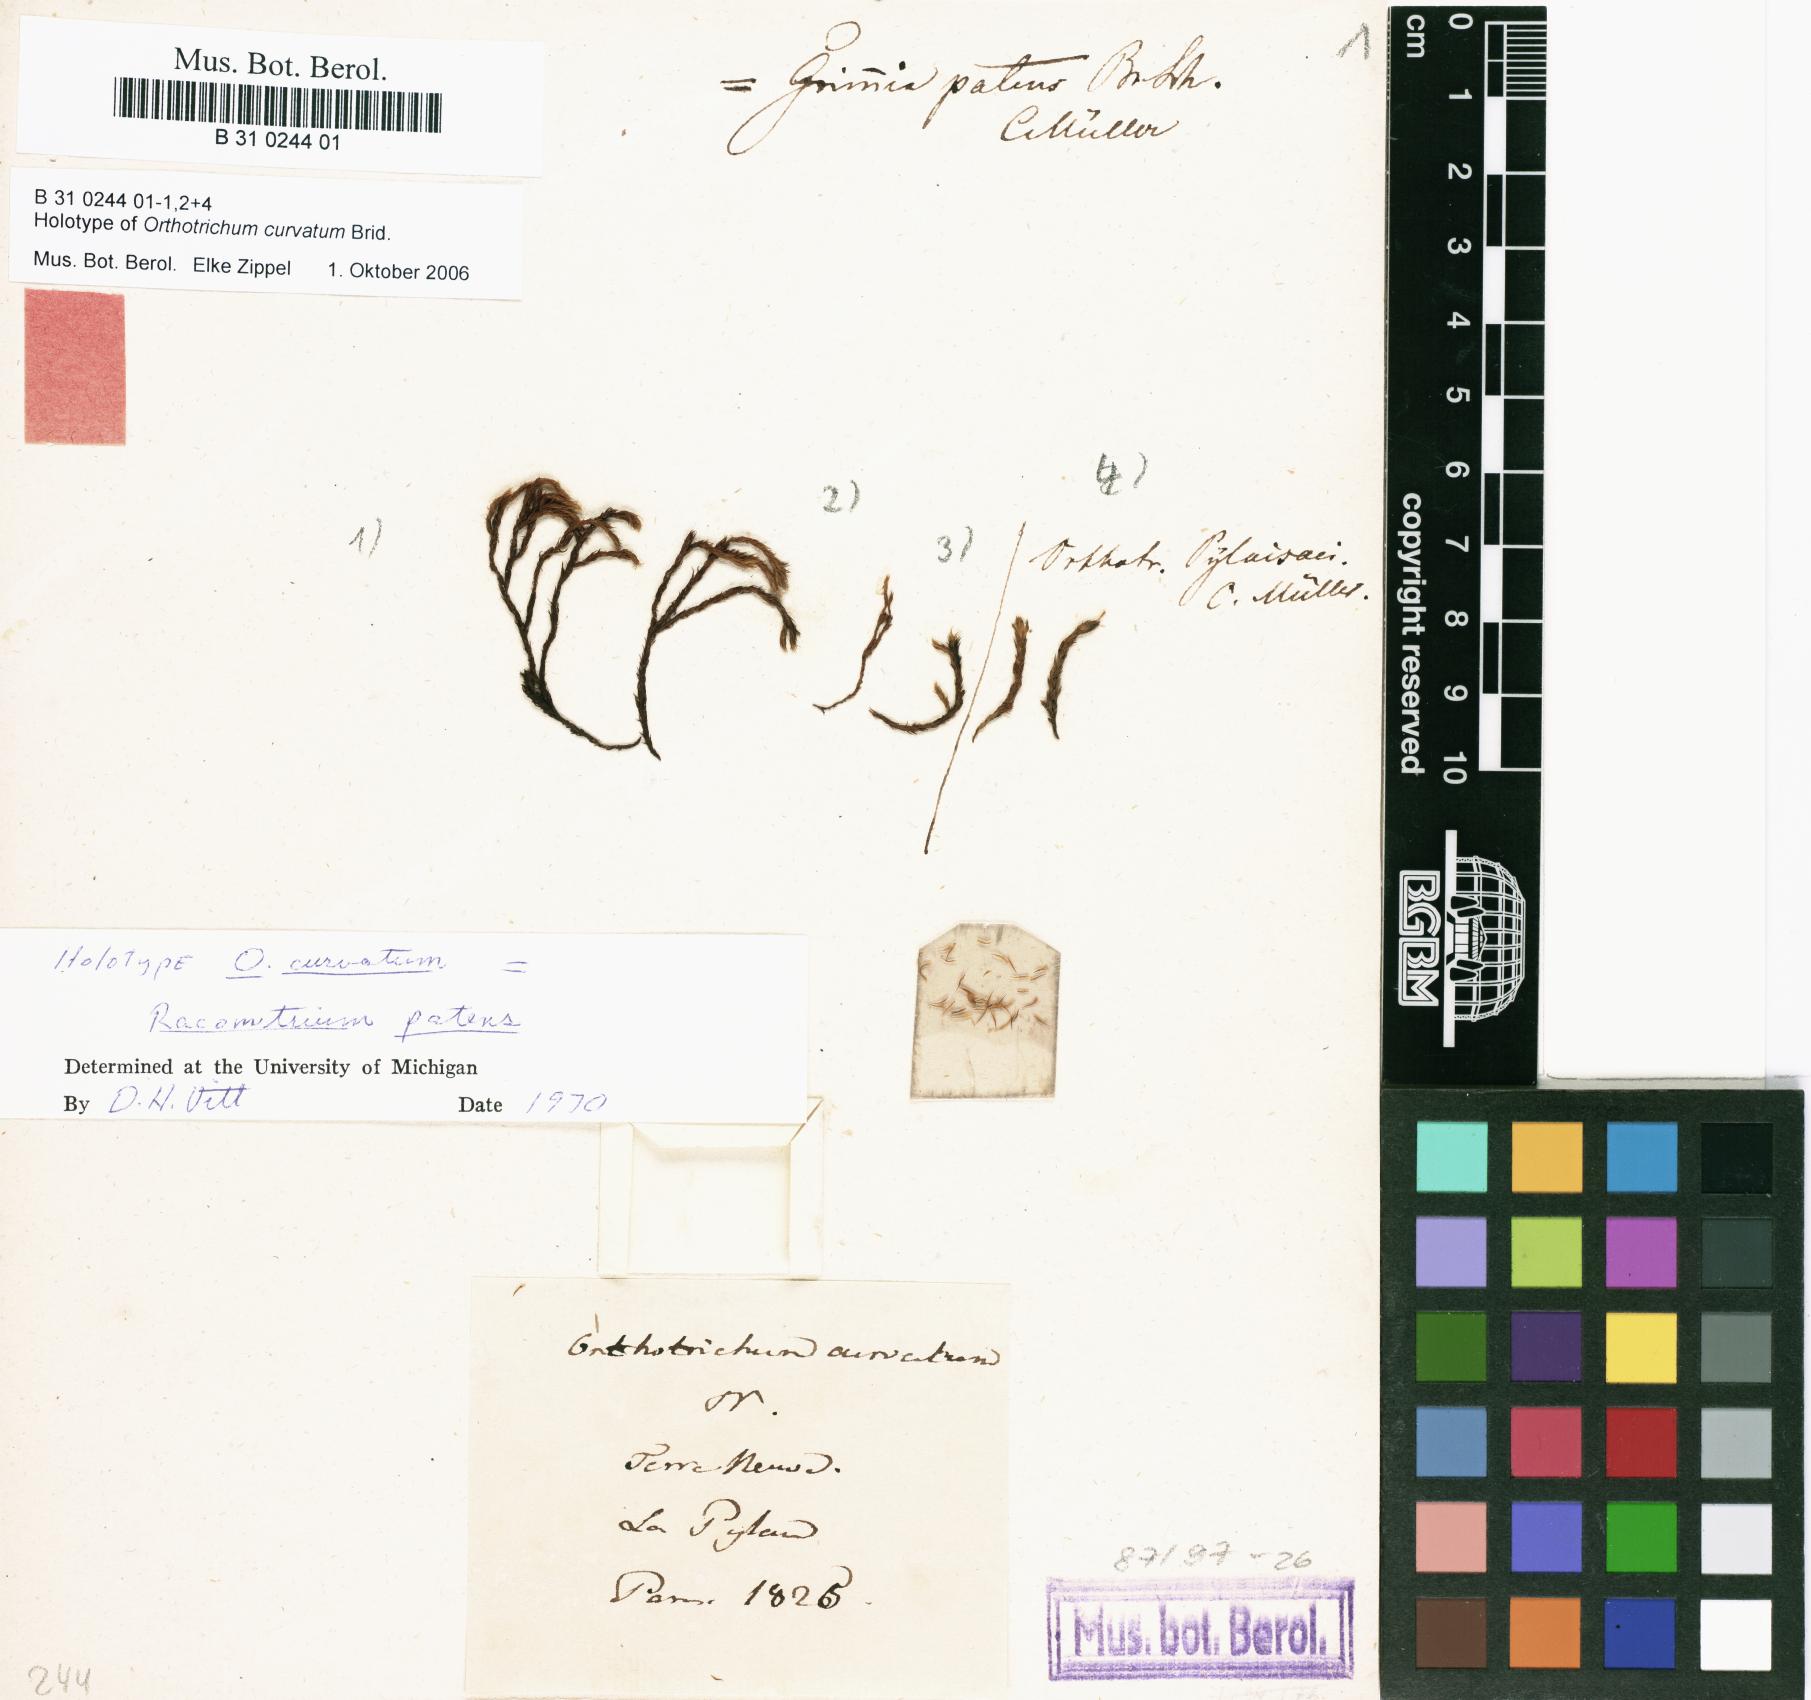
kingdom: Plantae
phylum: Bryophyta
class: Bryopsida
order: Orthotrichales
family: Orthotrichaceae
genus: Lewinskya
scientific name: Lewinskya pylaisii
